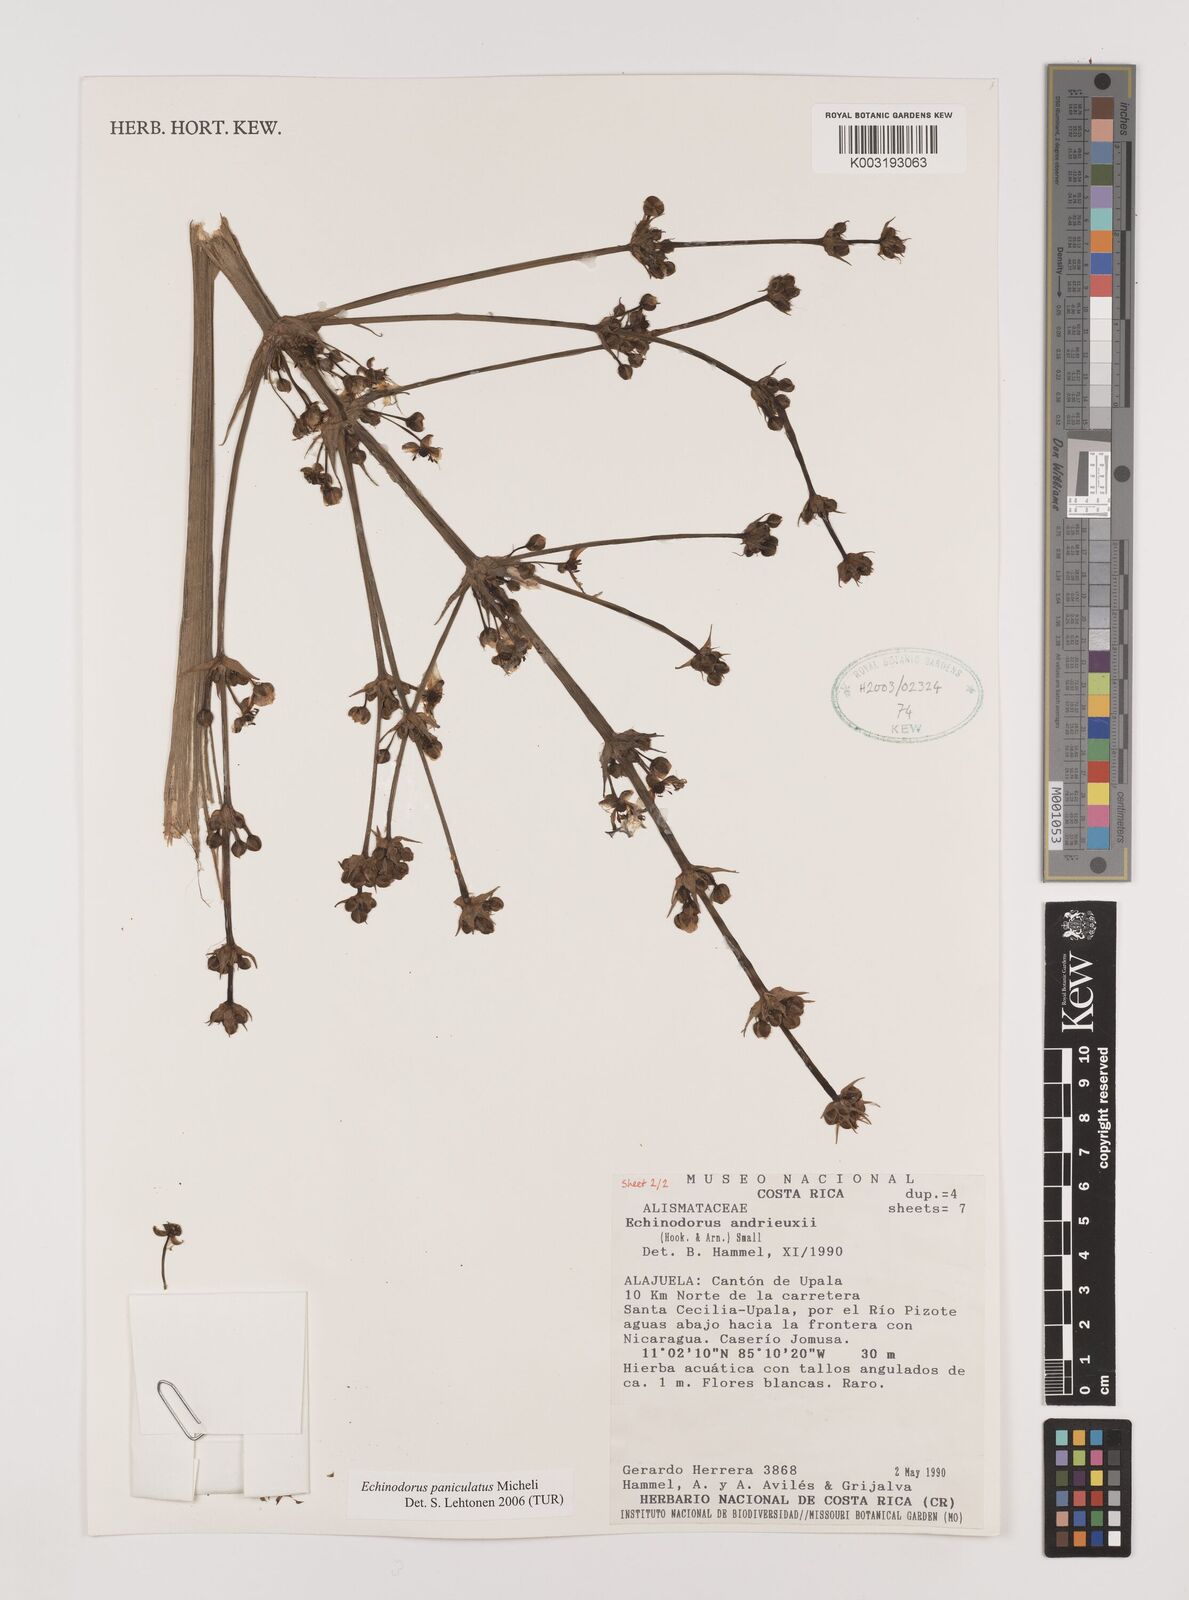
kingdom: Plantae
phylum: Tracheophyta
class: Liliopsida
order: Alismatales
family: Alismataceae
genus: Aquarius
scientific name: Aquarius paniculatus
